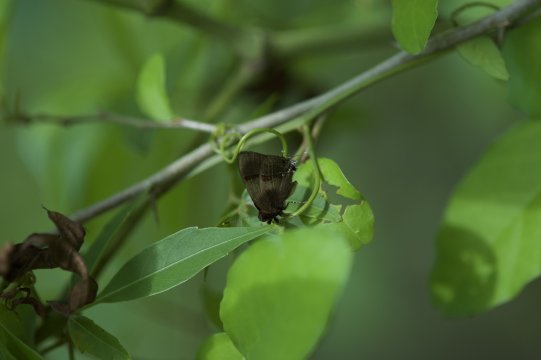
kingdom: Animalia
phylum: Arthropoda
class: Insecta
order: Lepidoptera
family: Lycaenidae
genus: Lamprospilus
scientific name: Lamprospilus collucia
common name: Two-toned Groundstreak
